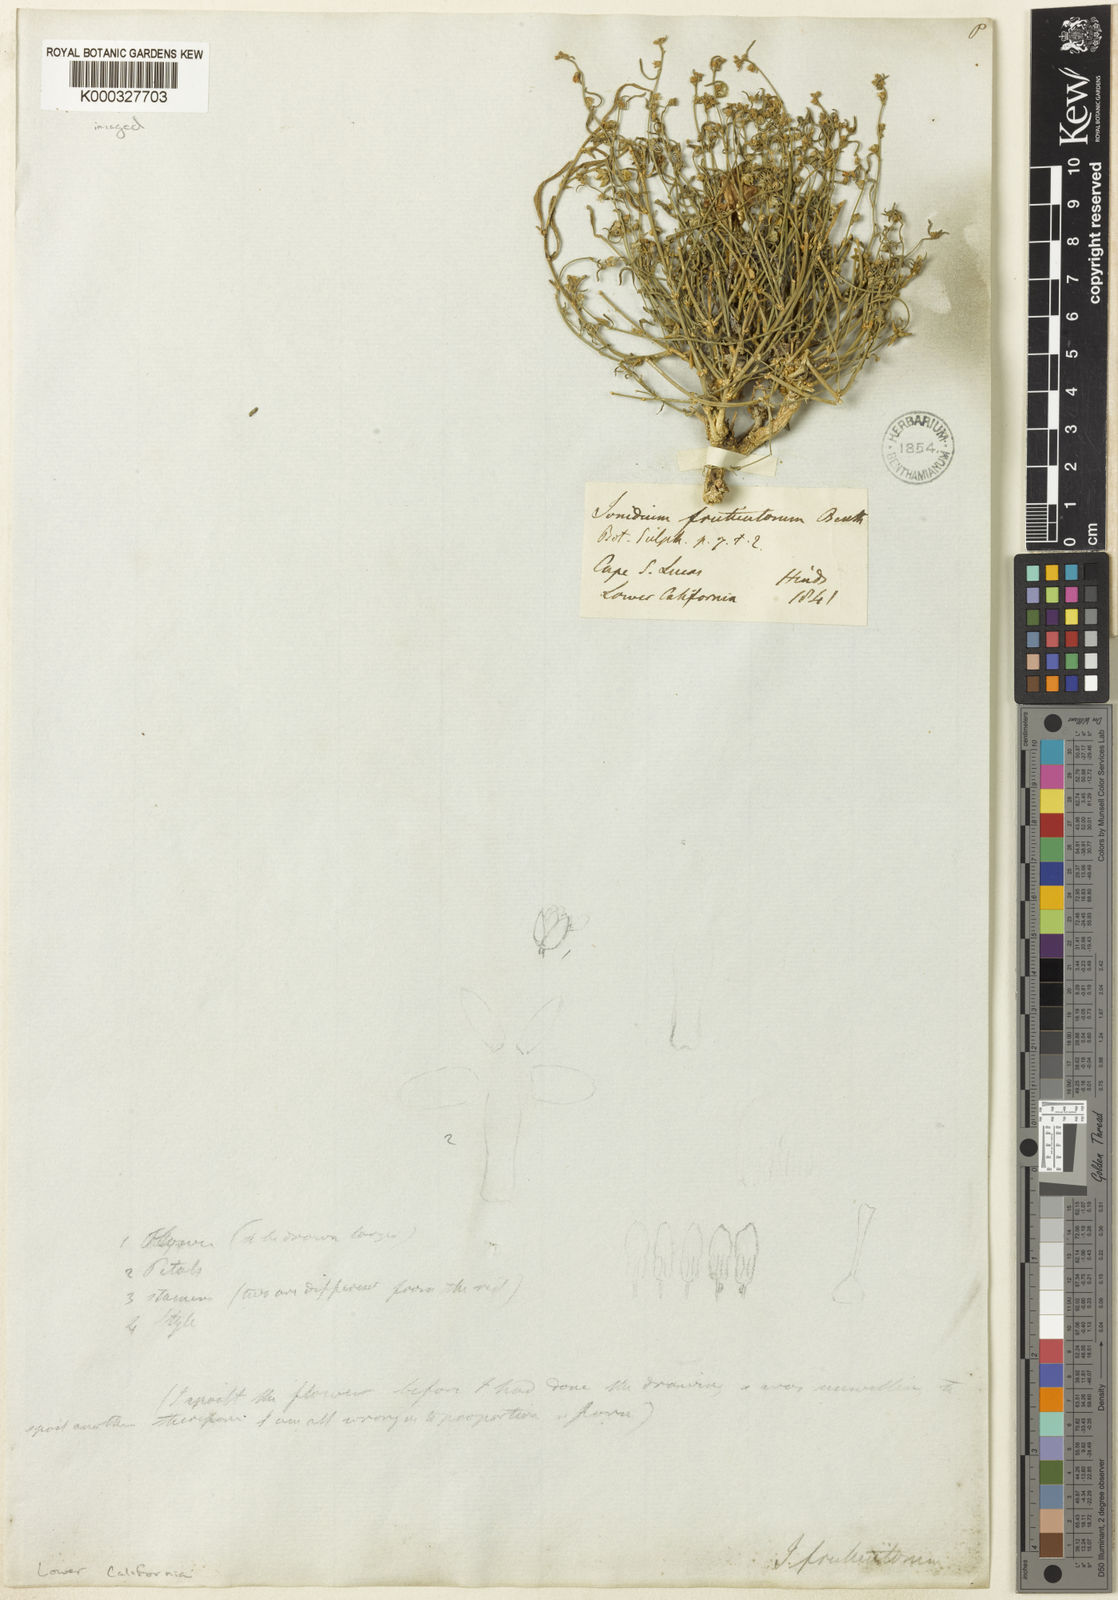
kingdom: Plantae
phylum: Tracheophyta
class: Magnoliopsida
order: Malpighiales
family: Violaceae
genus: Hybanthus
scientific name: Hybanthus fruticulosus
